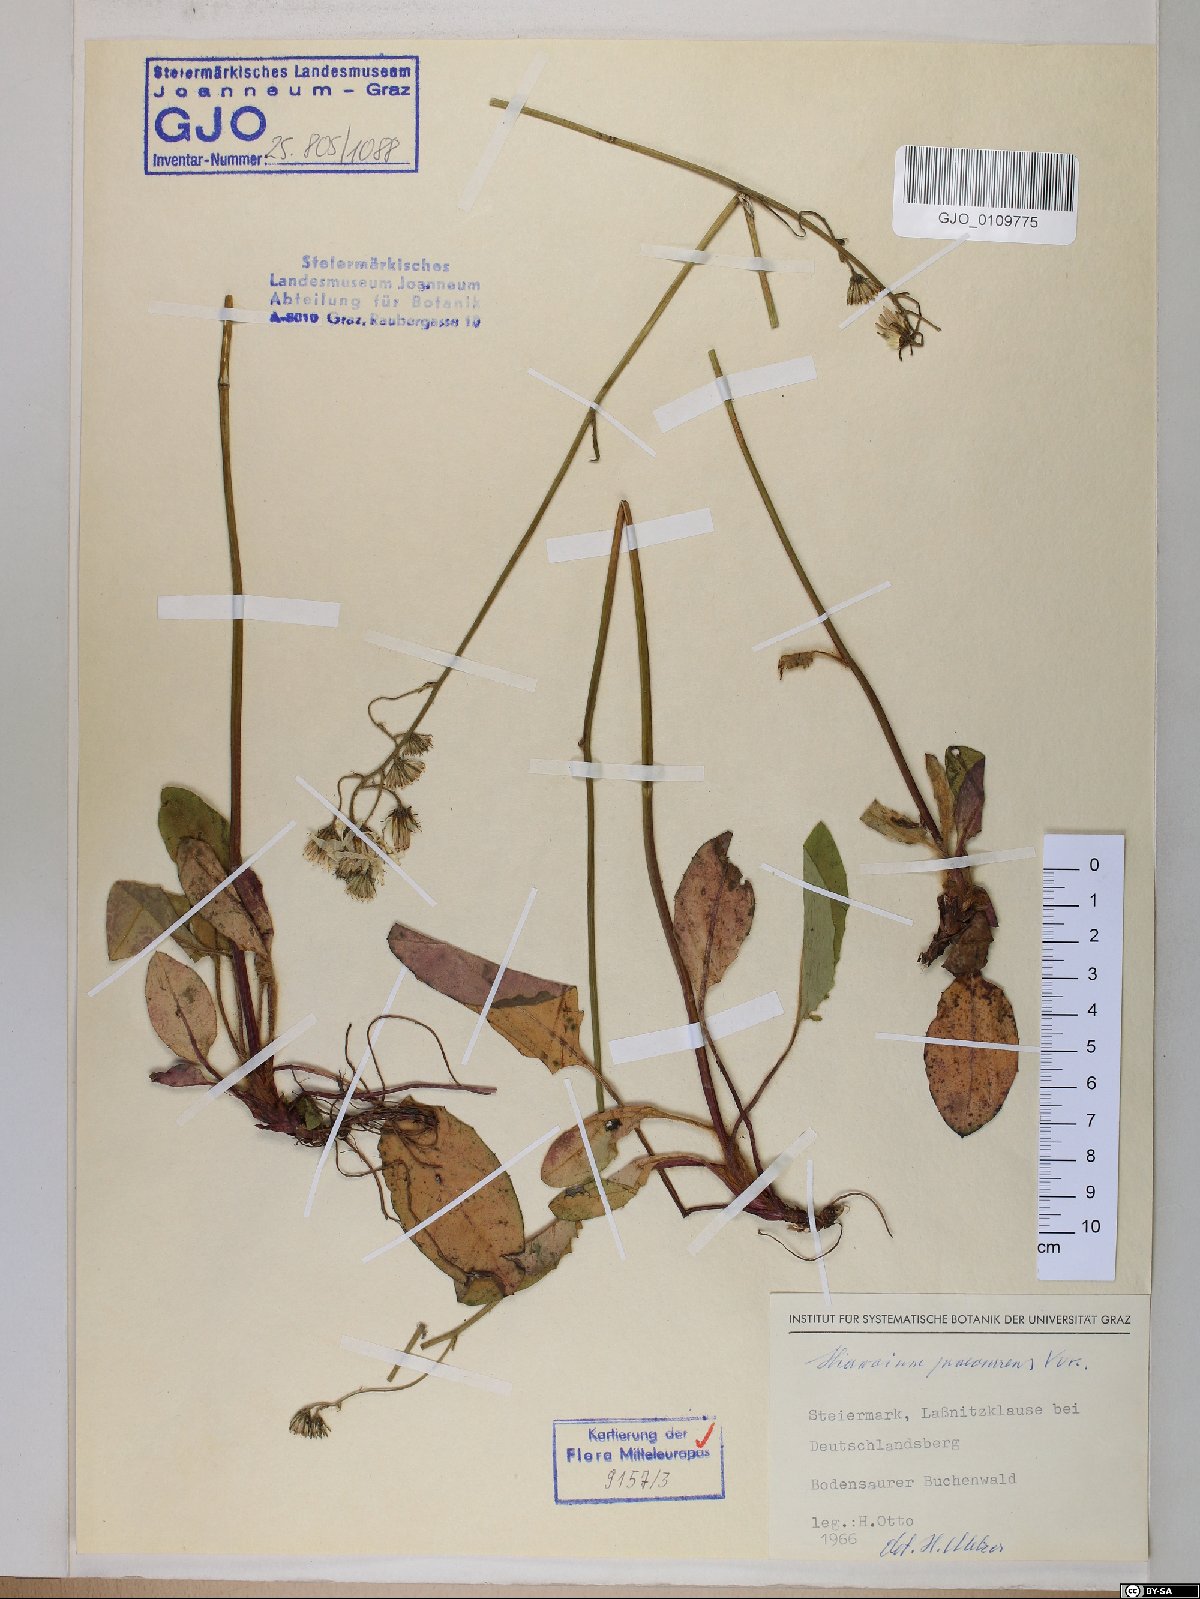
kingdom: Plantae
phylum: Tracheophyta
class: Magnoliopsida
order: Asterales
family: Asteraceae
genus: Hieracium
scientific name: Hieracium rotundatum
